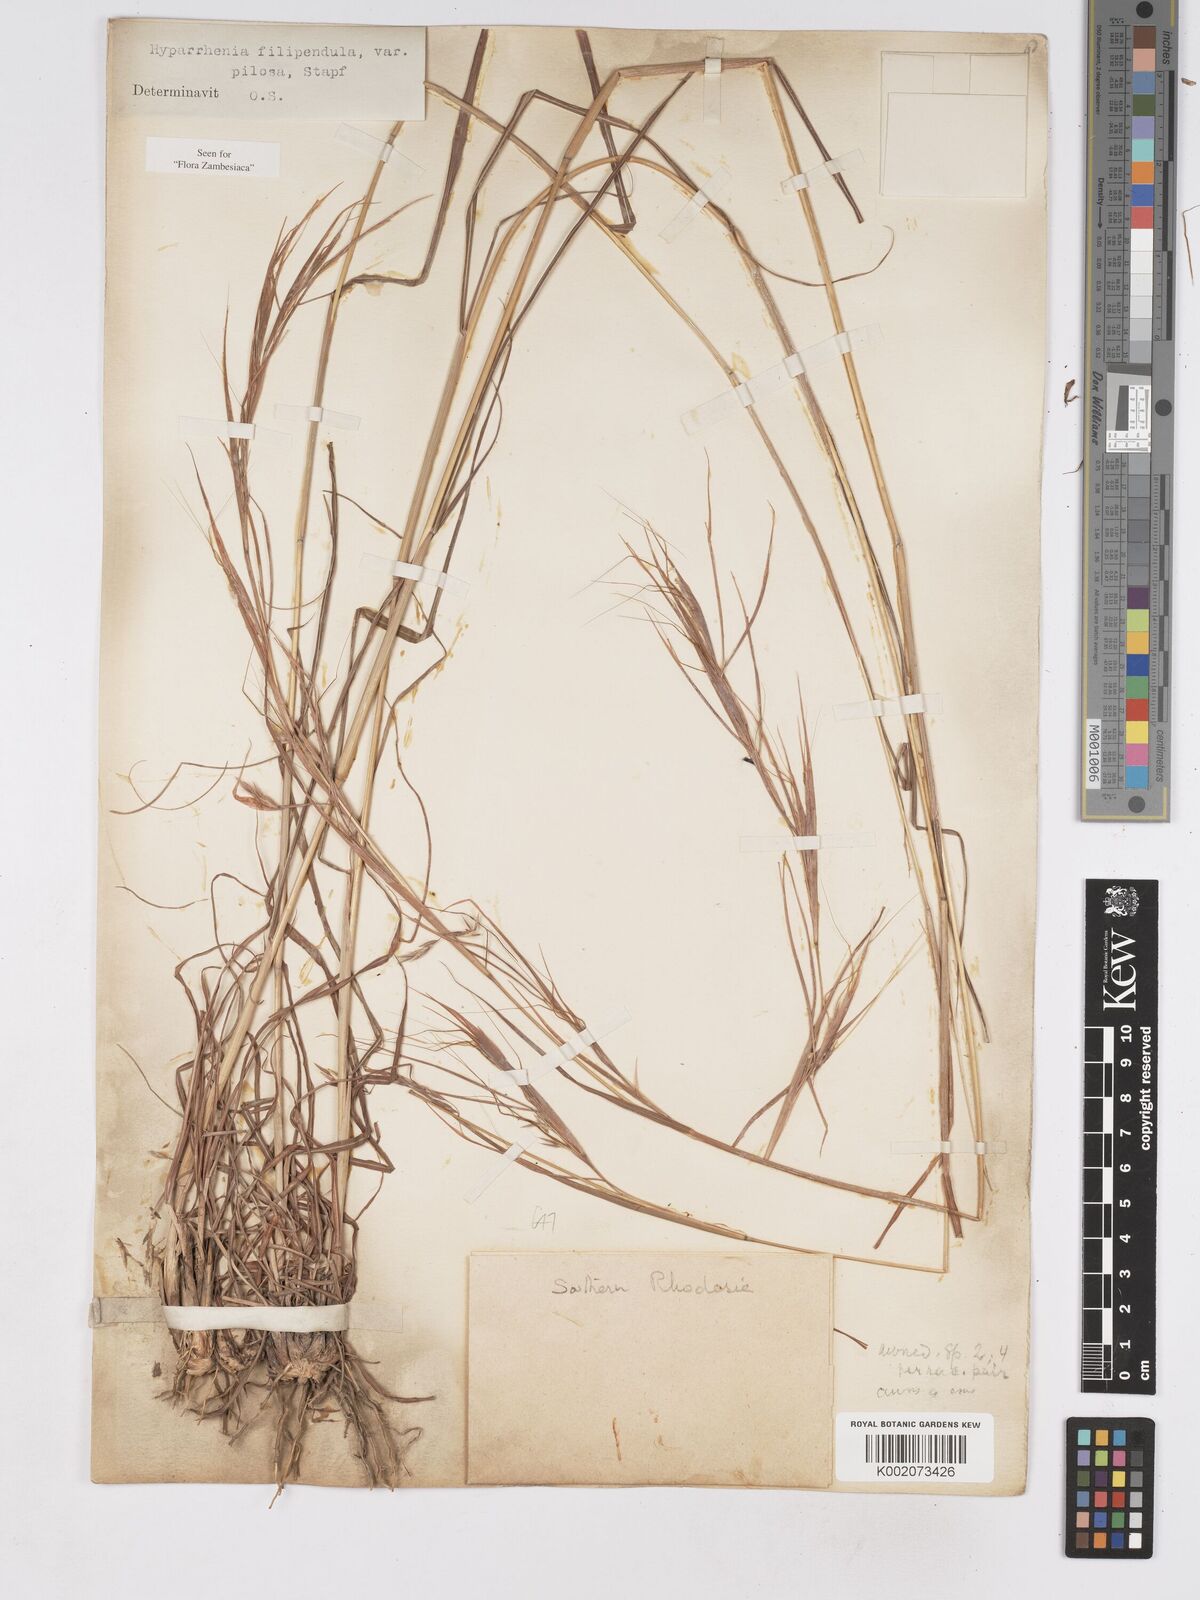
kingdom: Plantae
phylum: Tracheophyta
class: Liliopsida
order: Poales
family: Poaceae
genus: Hyparrhenia
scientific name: Hyparrhenia filipendula
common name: Tambookie grass
